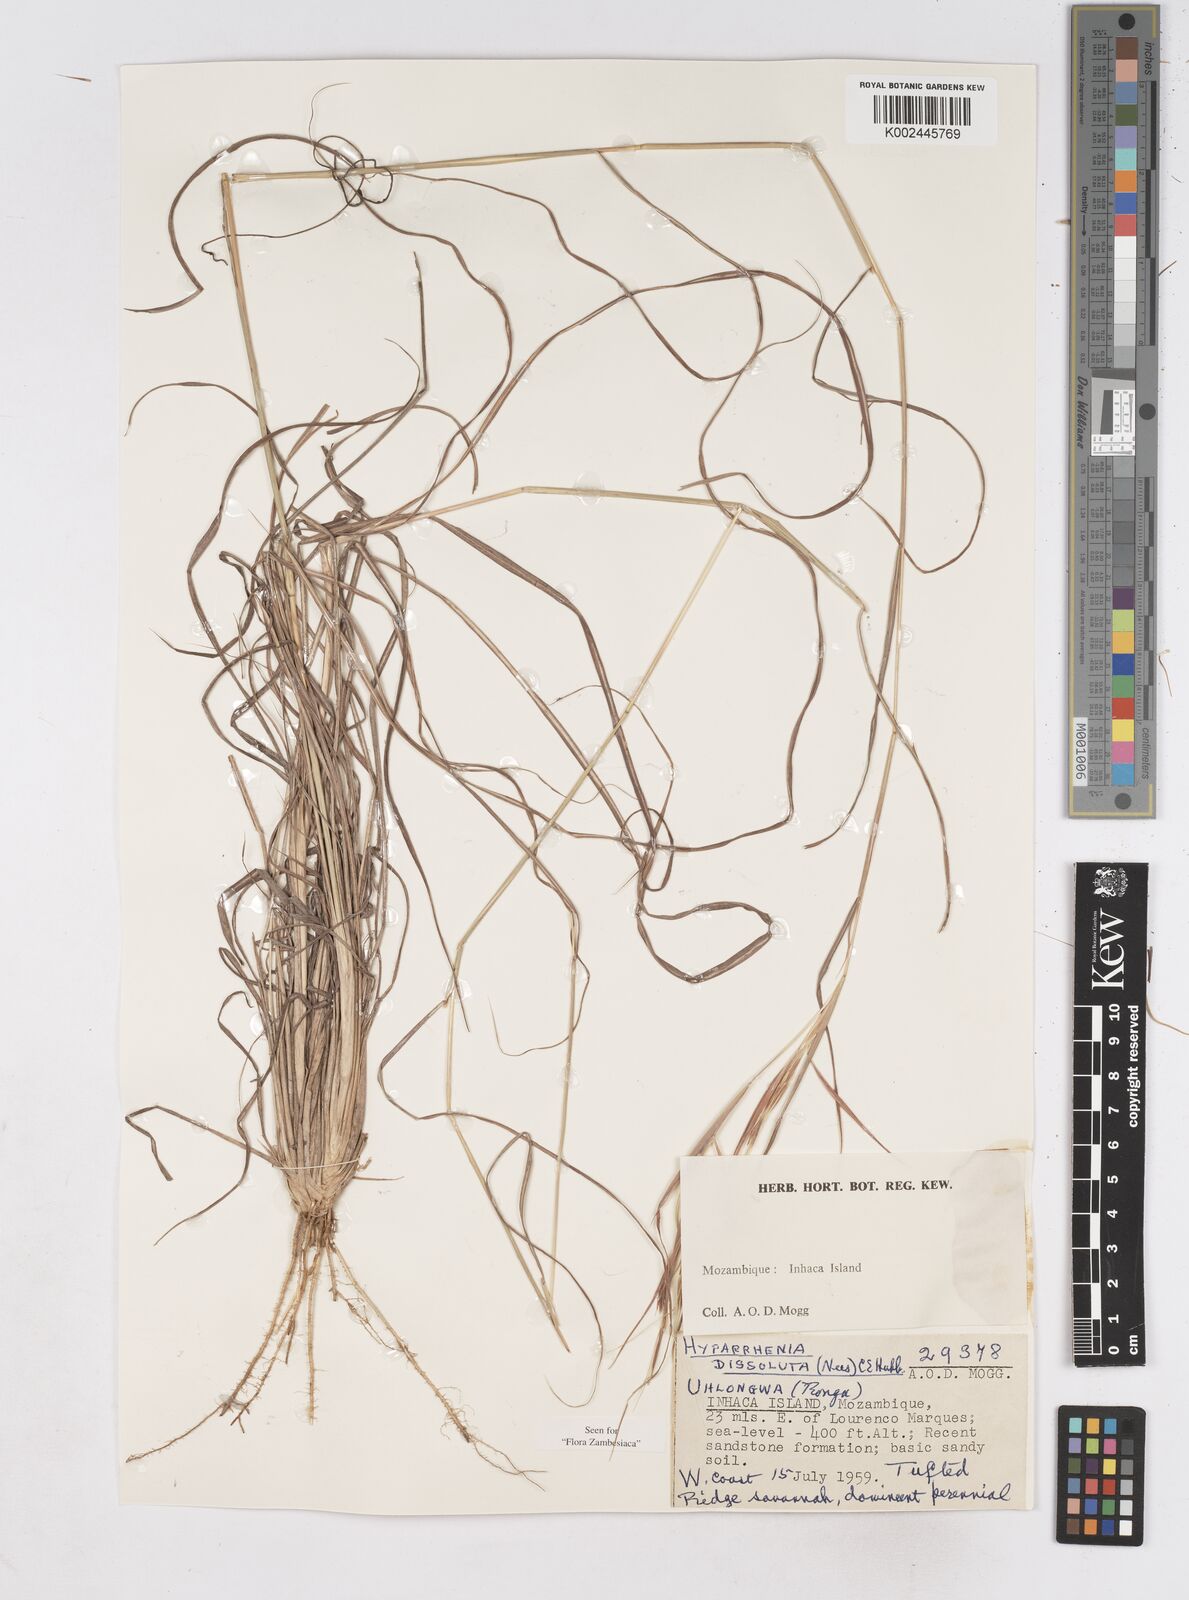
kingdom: Plantae
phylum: Tracheophyta
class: Liliopsida
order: Poales
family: Poaceae
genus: Hyperthelia
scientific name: Hyperthelia dissoluta
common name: Yellow thatching grass
